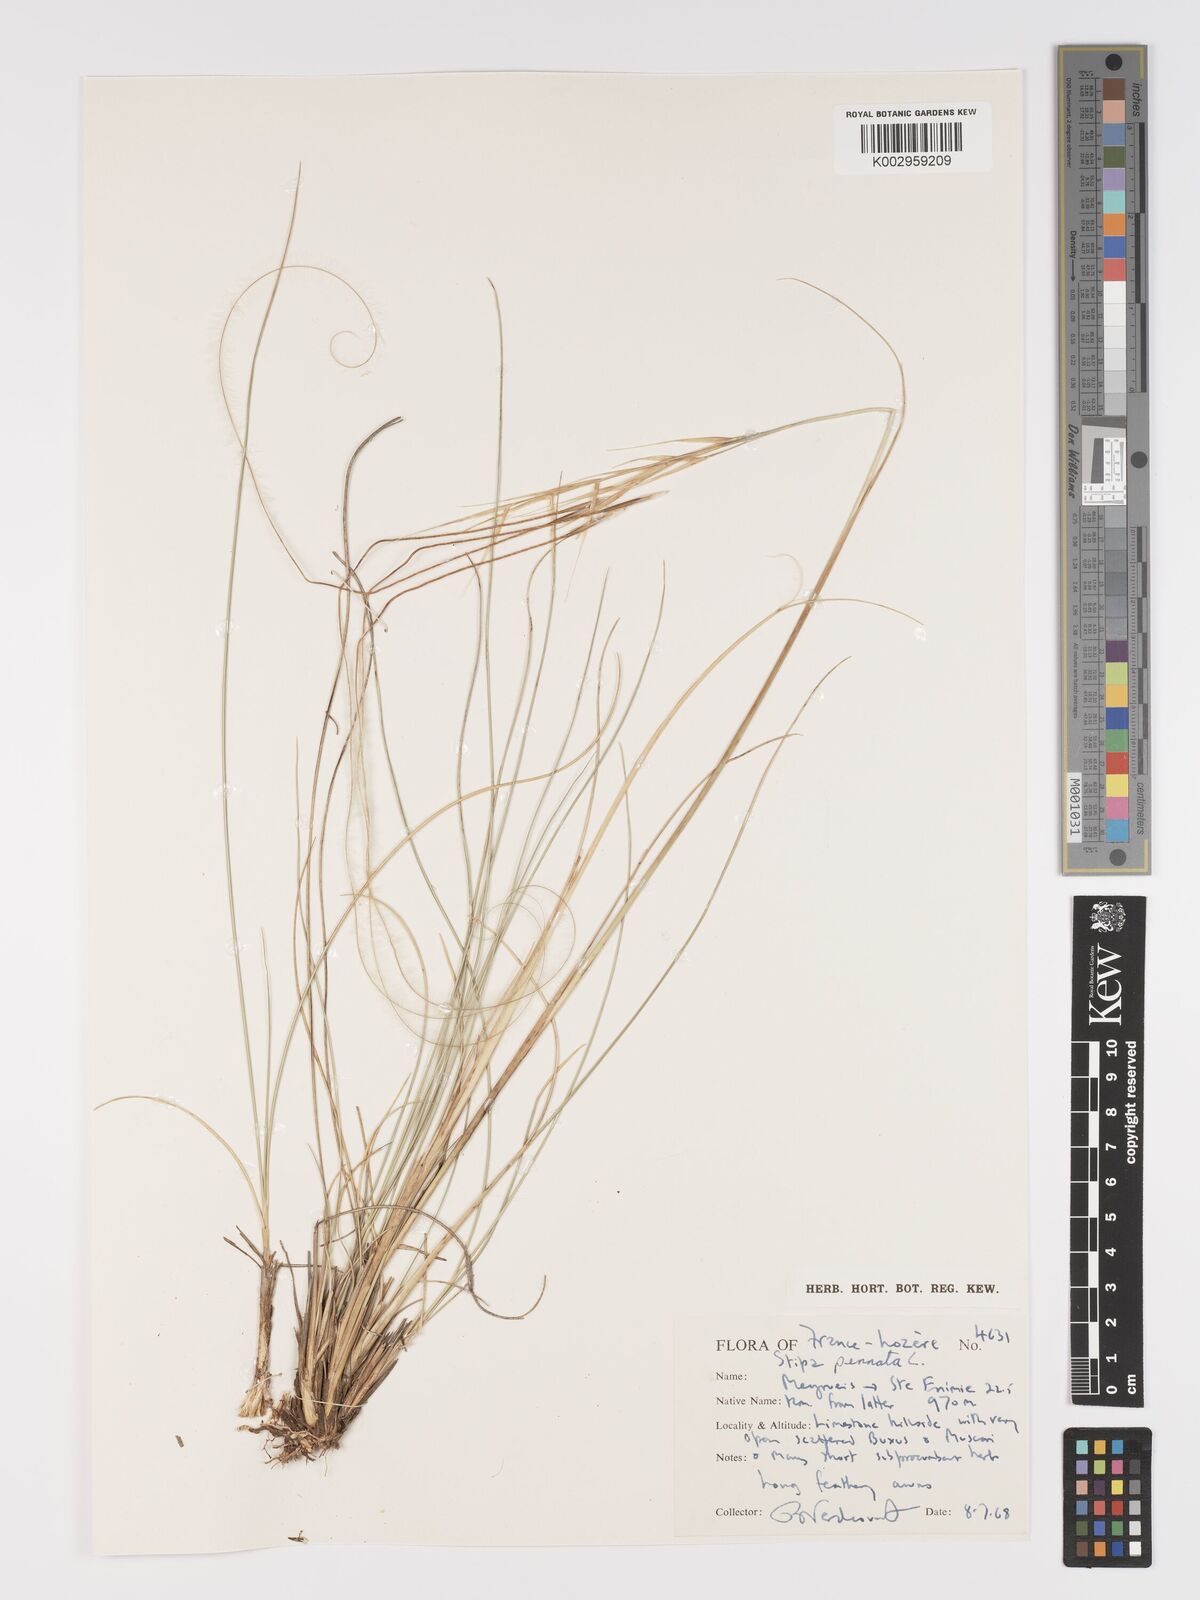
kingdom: Plantae
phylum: Tracheophyta
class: Liliopsida
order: Poales
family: Poaceae
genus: Stipa
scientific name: Stipa pennata
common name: European feather grass
